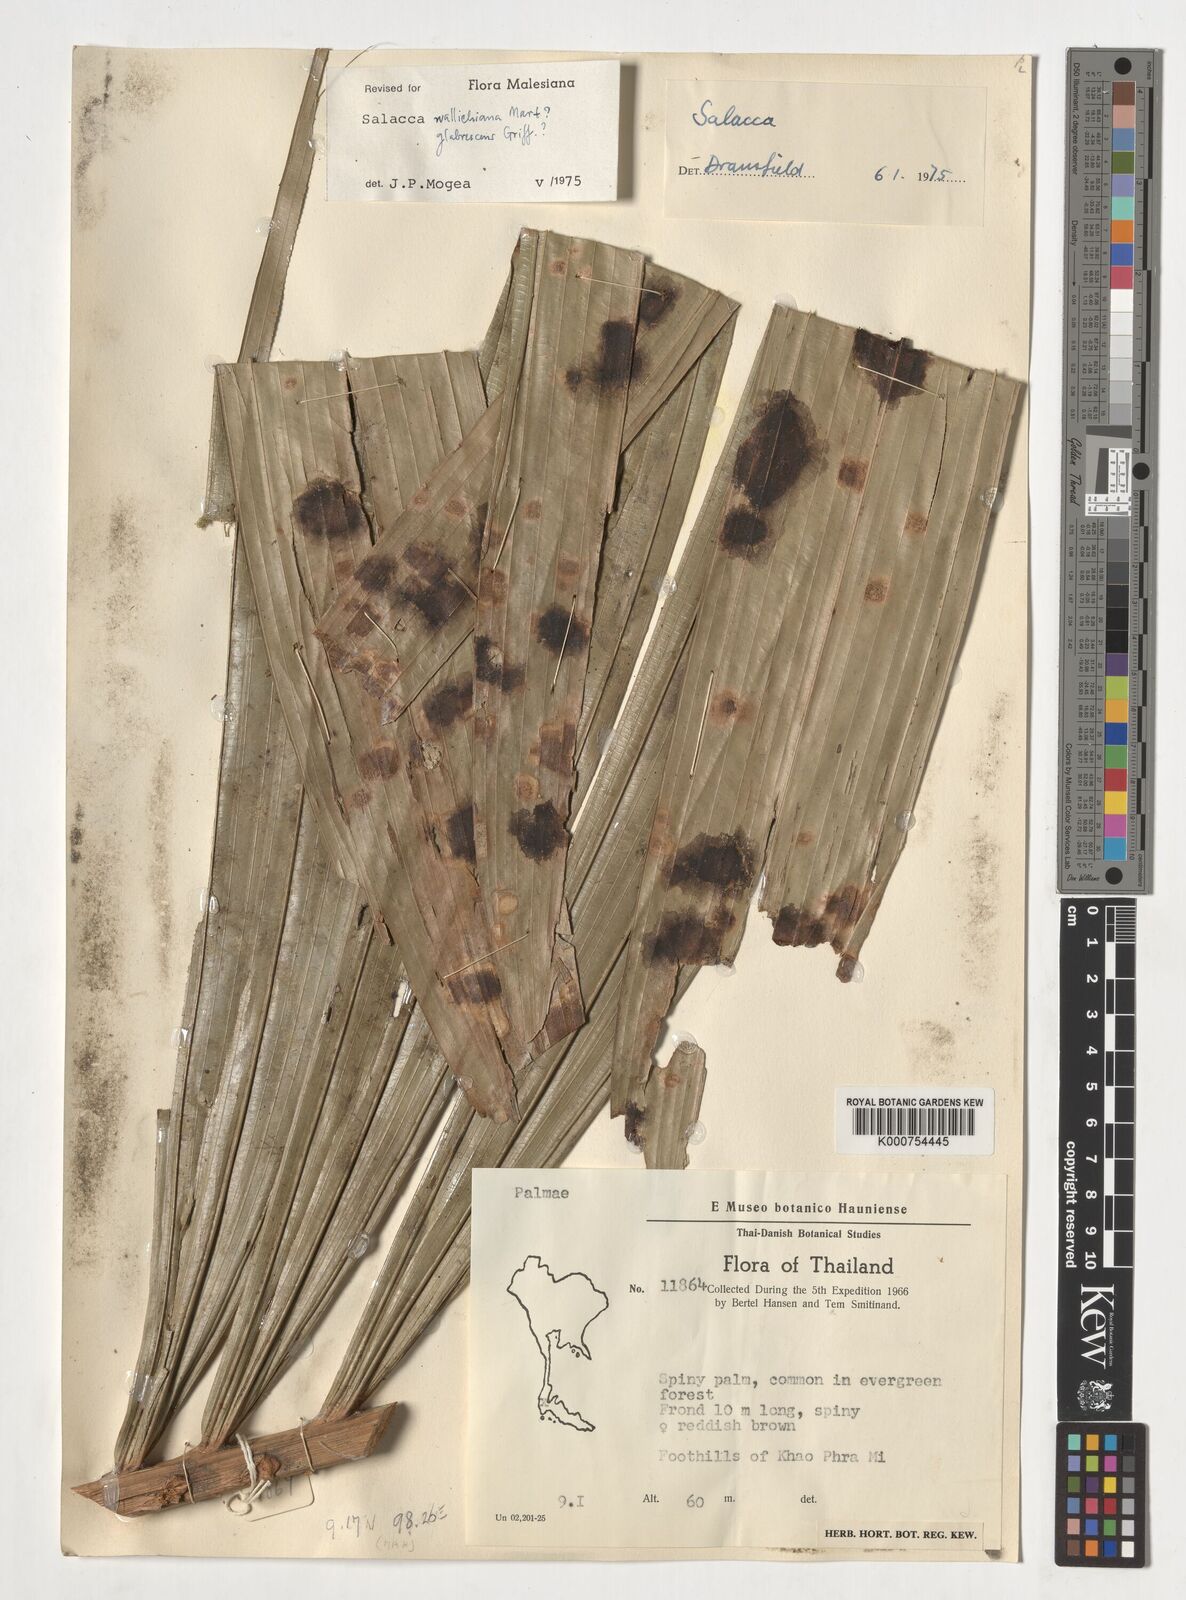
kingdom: Plantae
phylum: Tracheophyta
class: Liliopsida
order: Arecales
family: Arecaceae
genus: Salacca
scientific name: Salacca wallichiana
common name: Rakum palm
